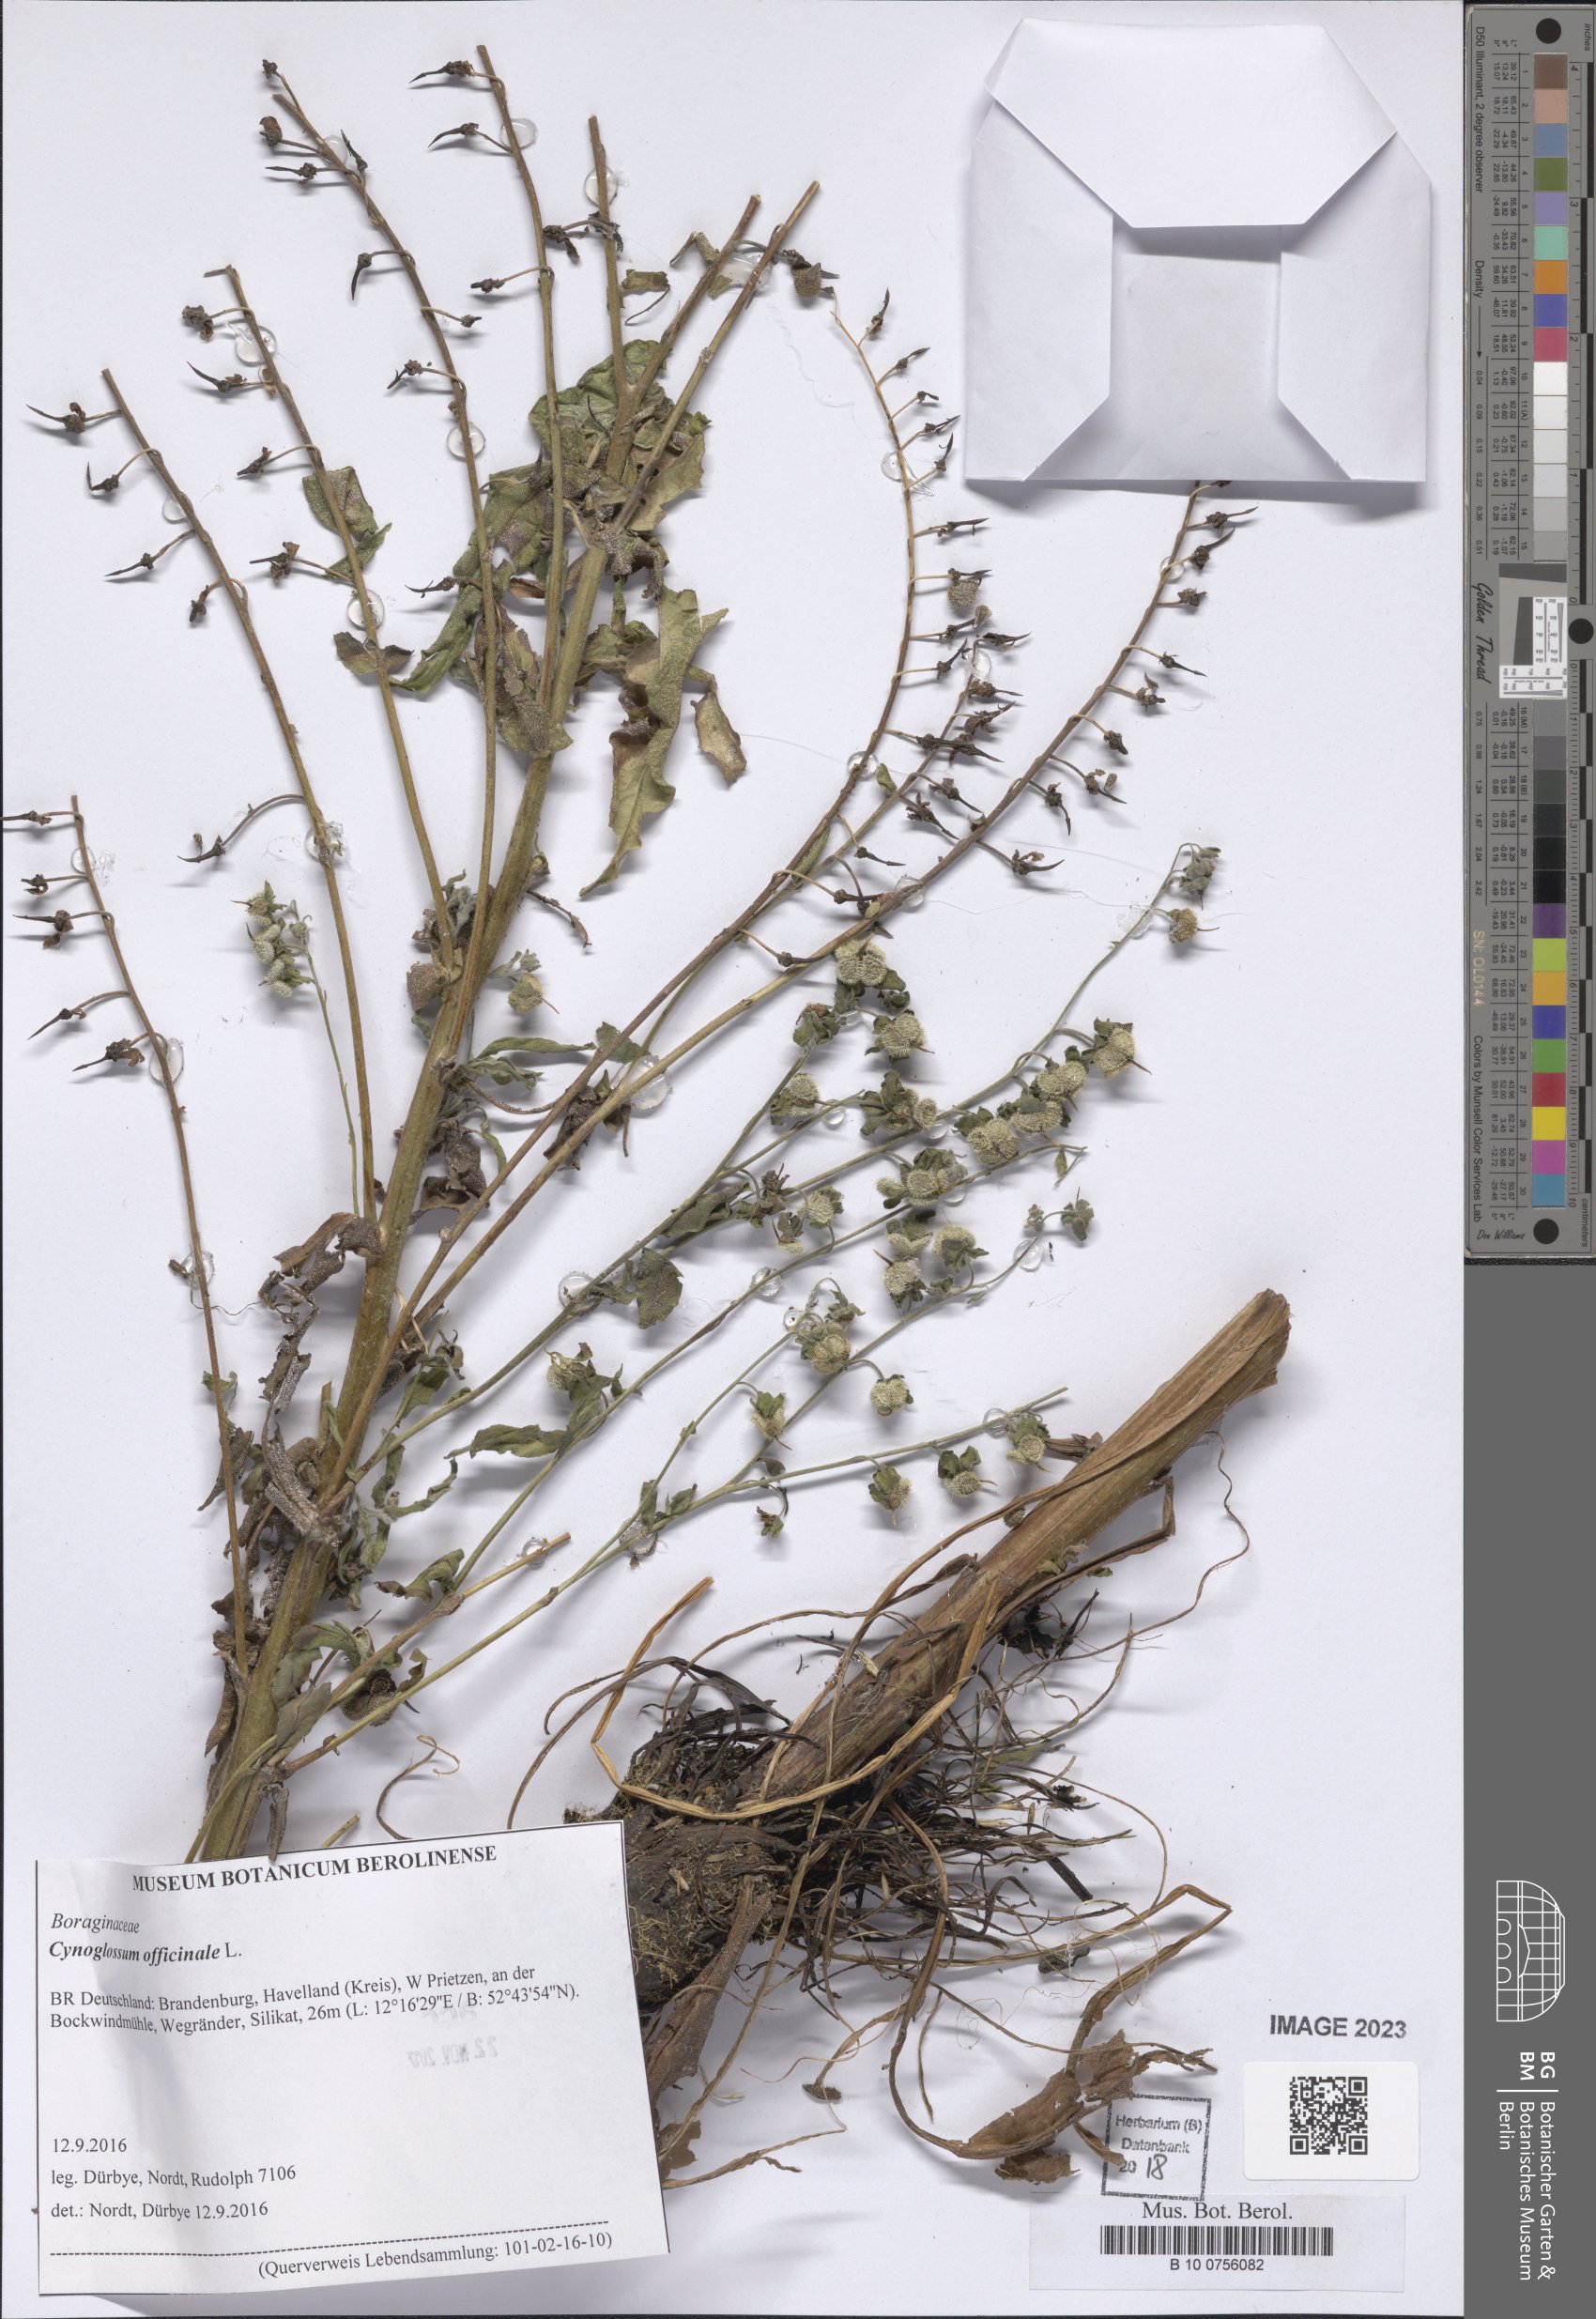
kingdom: Plantae
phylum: Tracheophyta
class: Magnoliopsida
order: Boraginales
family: Boraginaceae
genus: Cynoglossum
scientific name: Cynoglossum officinale
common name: Hound's-tongue
